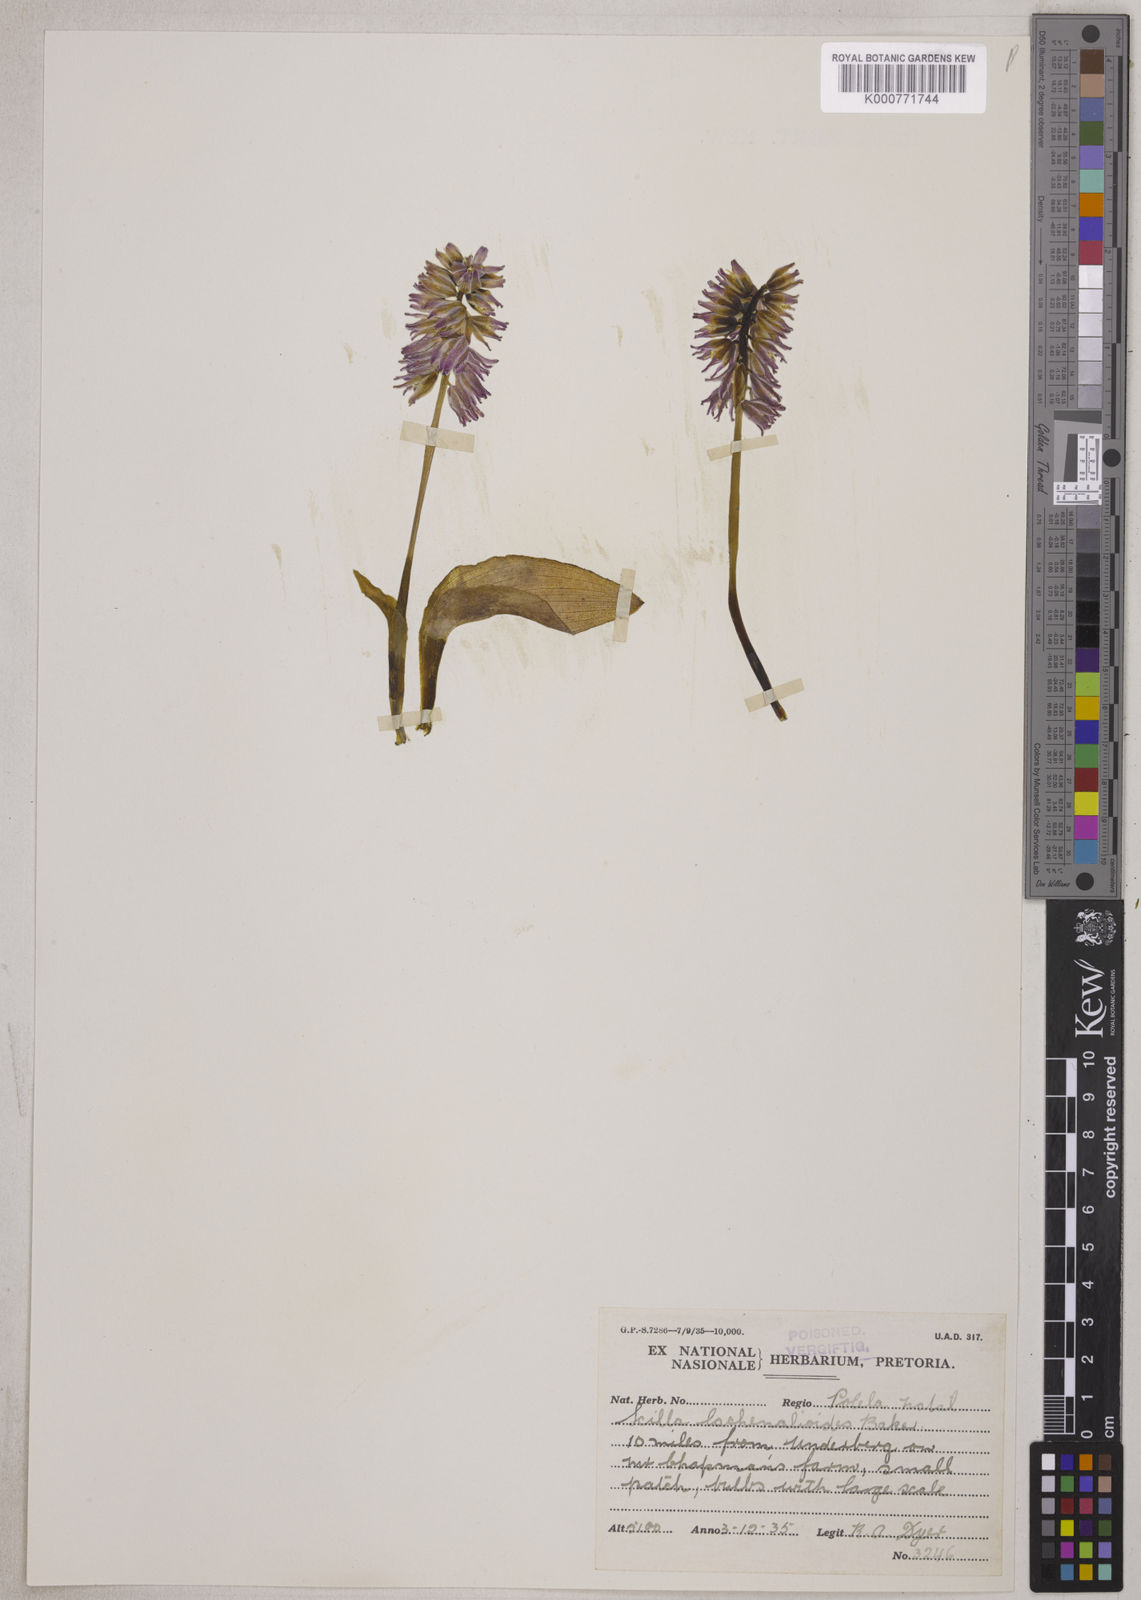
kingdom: Plantae
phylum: Tracheophyta
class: Liliopsida
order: Asparagales
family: Asparagaceae
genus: Resnova
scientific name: Resnova lachenalioides
